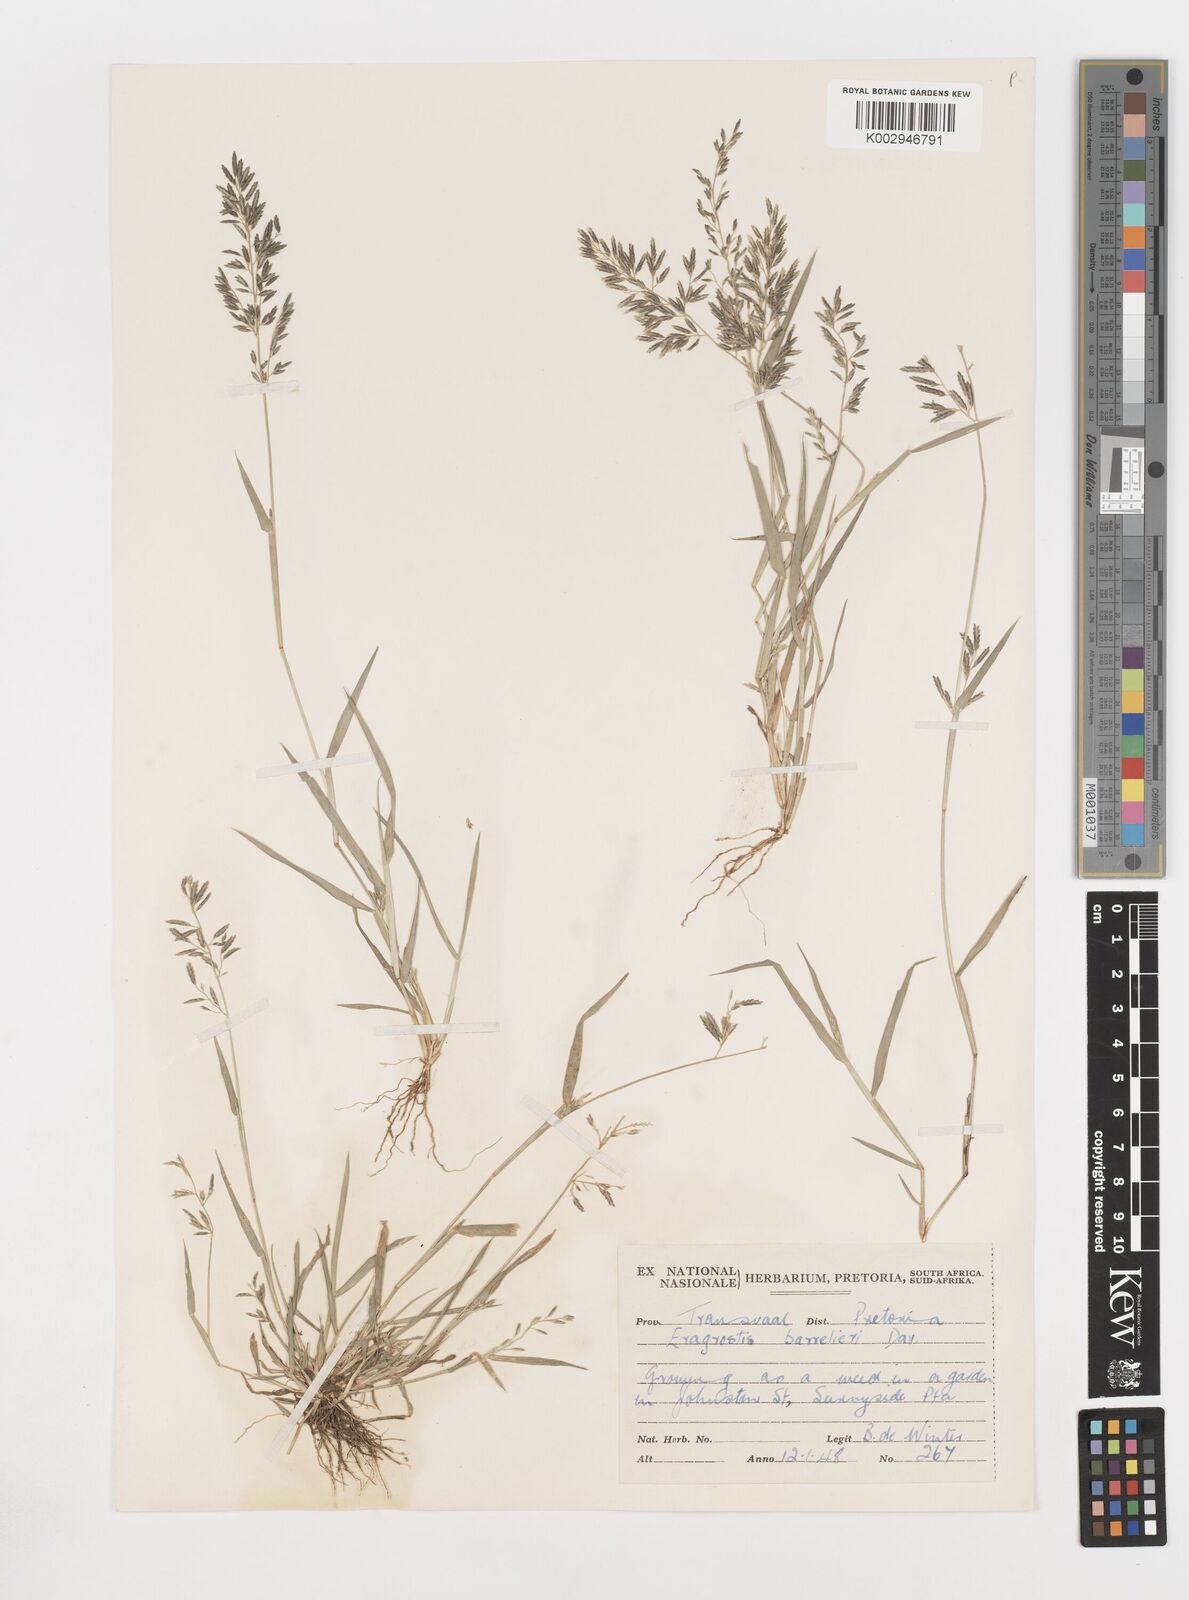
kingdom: Plantae
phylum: Tracheophyta
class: Liliopsida
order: Poales
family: Poaceae
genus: Eragrostis
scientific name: Eragrostis barrelieri
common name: Mediterranean lovegrass
